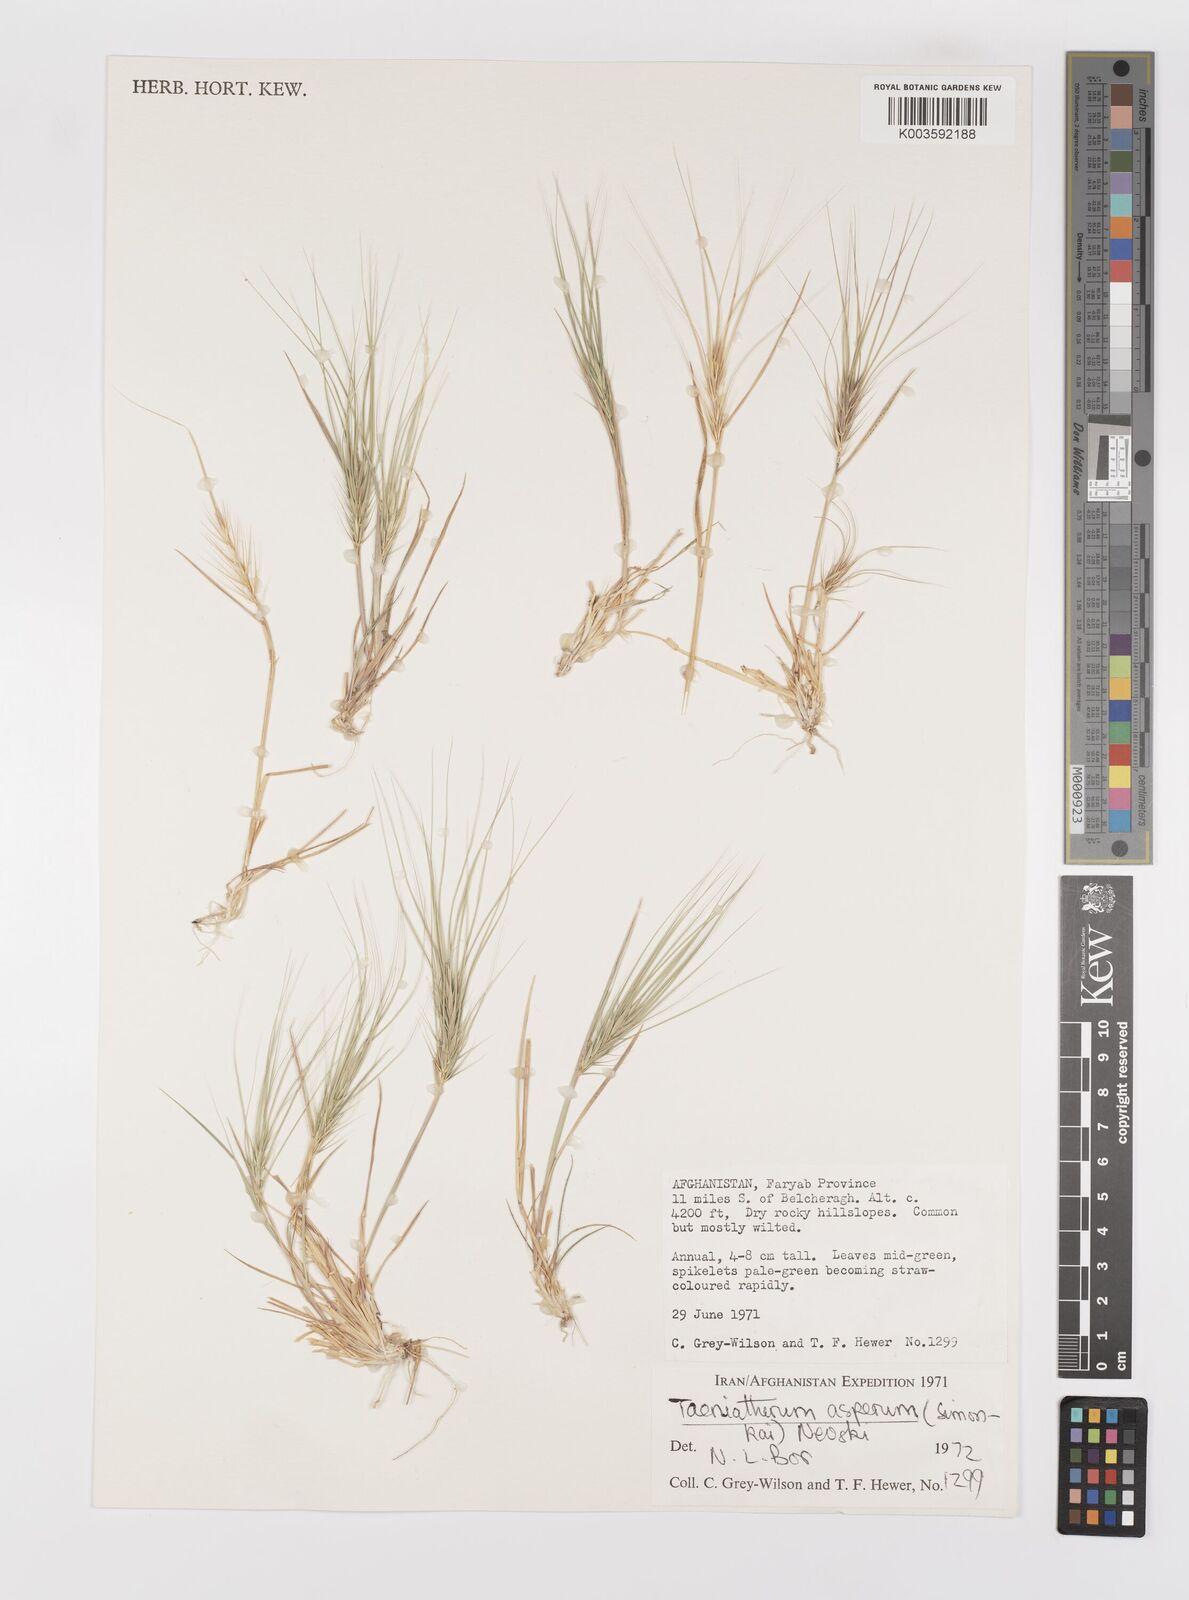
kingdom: Plantae
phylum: Tracheophyta
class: Liliopsida
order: Poales
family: Poaceae
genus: Taeniatherum
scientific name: Taeniatherum caput-medusae
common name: Medusahead
